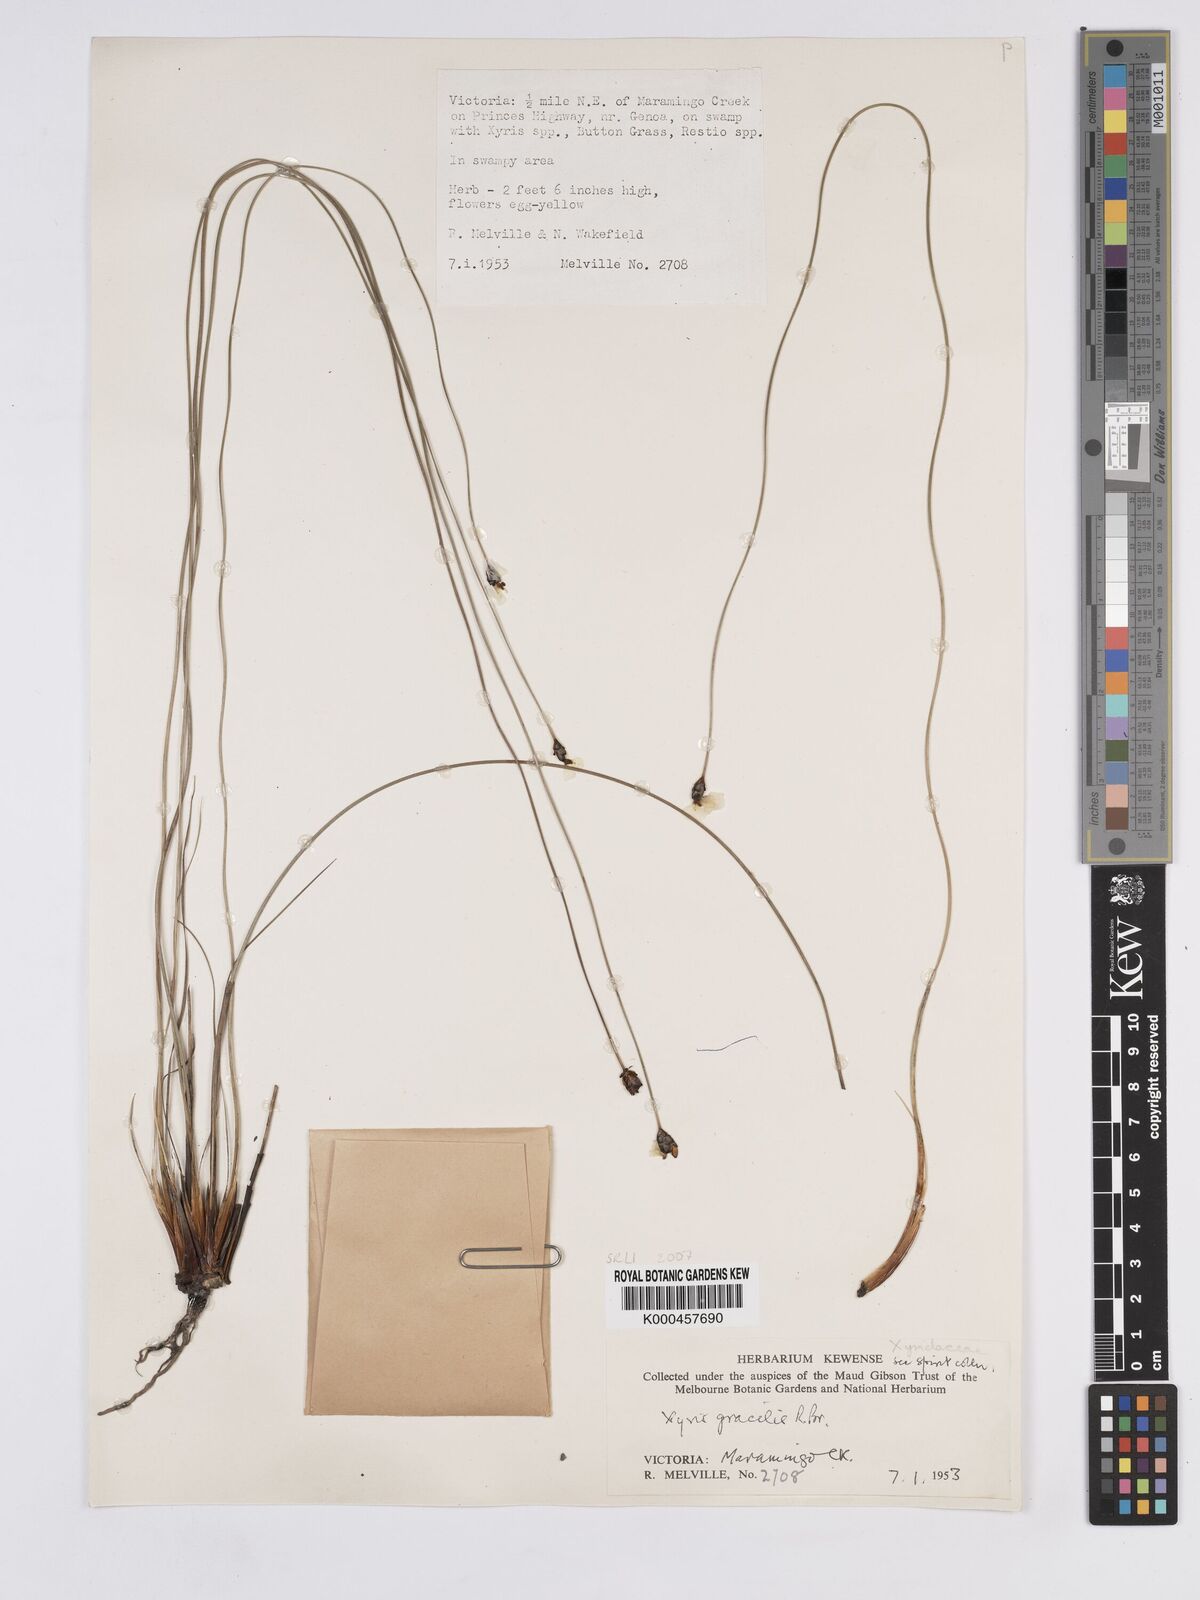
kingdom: Plantae
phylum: Tracheophyta
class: Liliopsida
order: Poales
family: Xyridaceae
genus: Xyris
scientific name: Xyris gracilis
